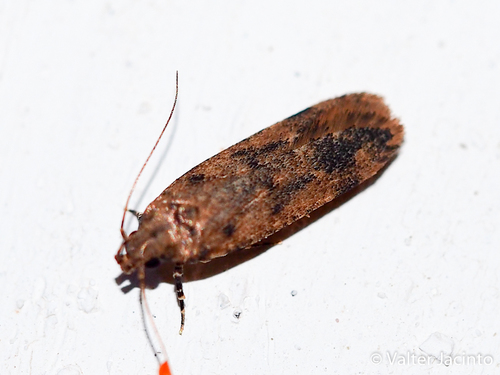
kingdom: Animalia
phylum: Arthropoda
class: Insecta
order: Lepidoptera
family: Gelechiidae
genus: Platyedra
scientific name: Platyedra subcinerea
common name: Moth
